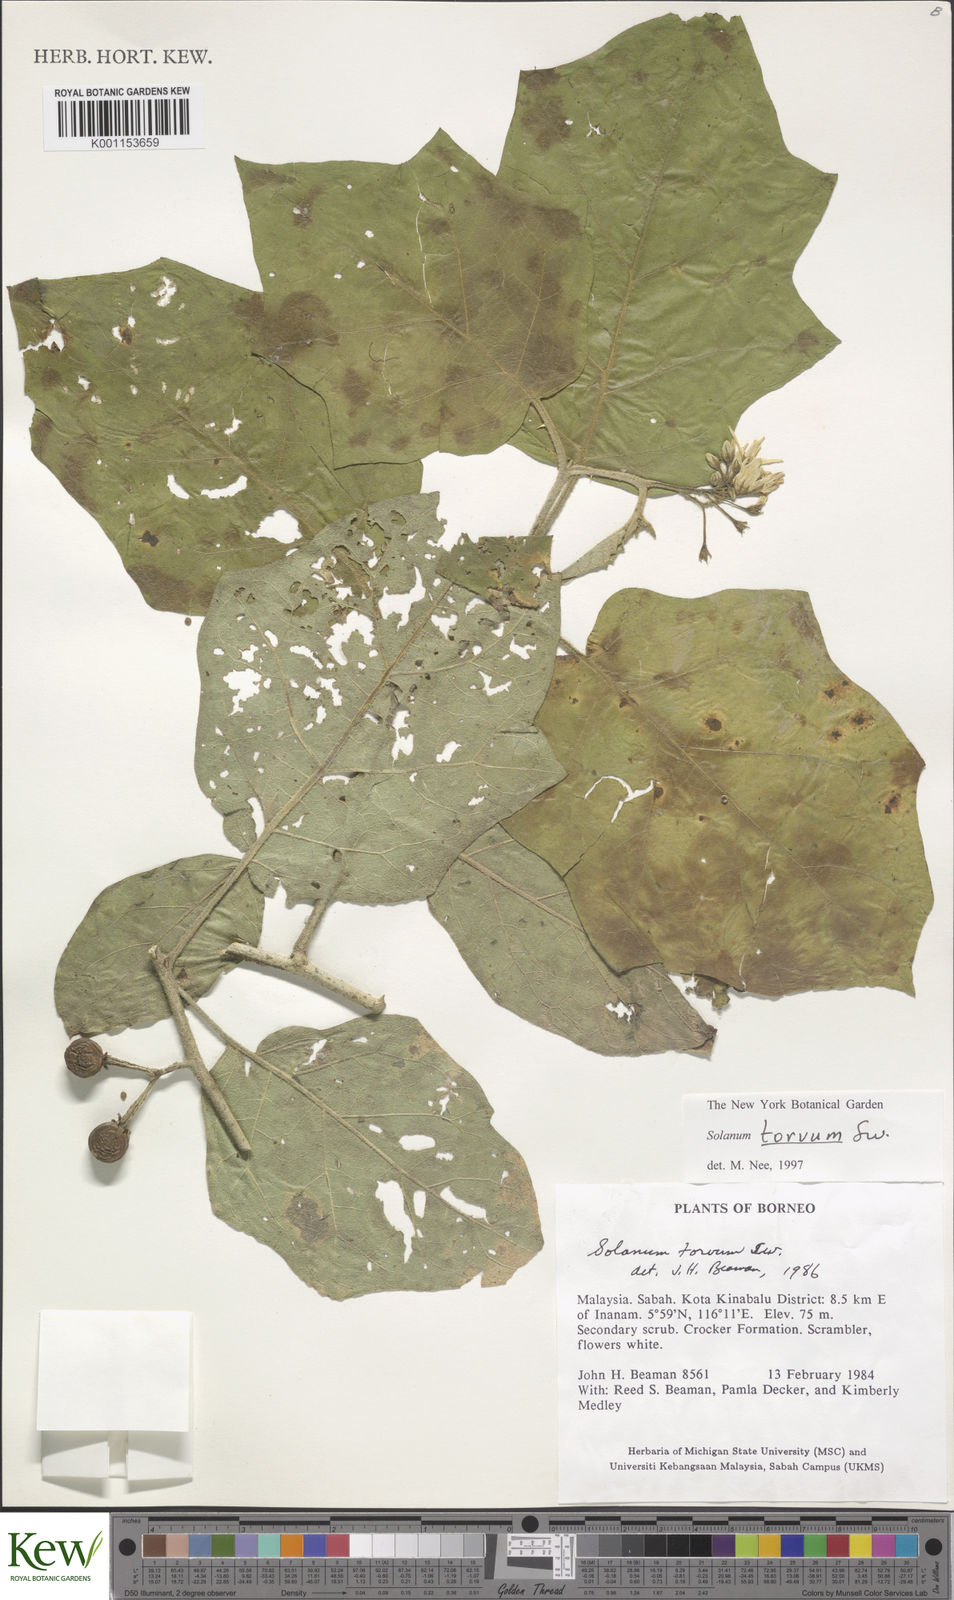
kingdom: Plantae
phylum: Tracheophyta
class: Magnoliopsida
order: Solanales
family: Solanaceae
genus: Solanum
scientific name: Solanum torvum
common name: Turkey berry
